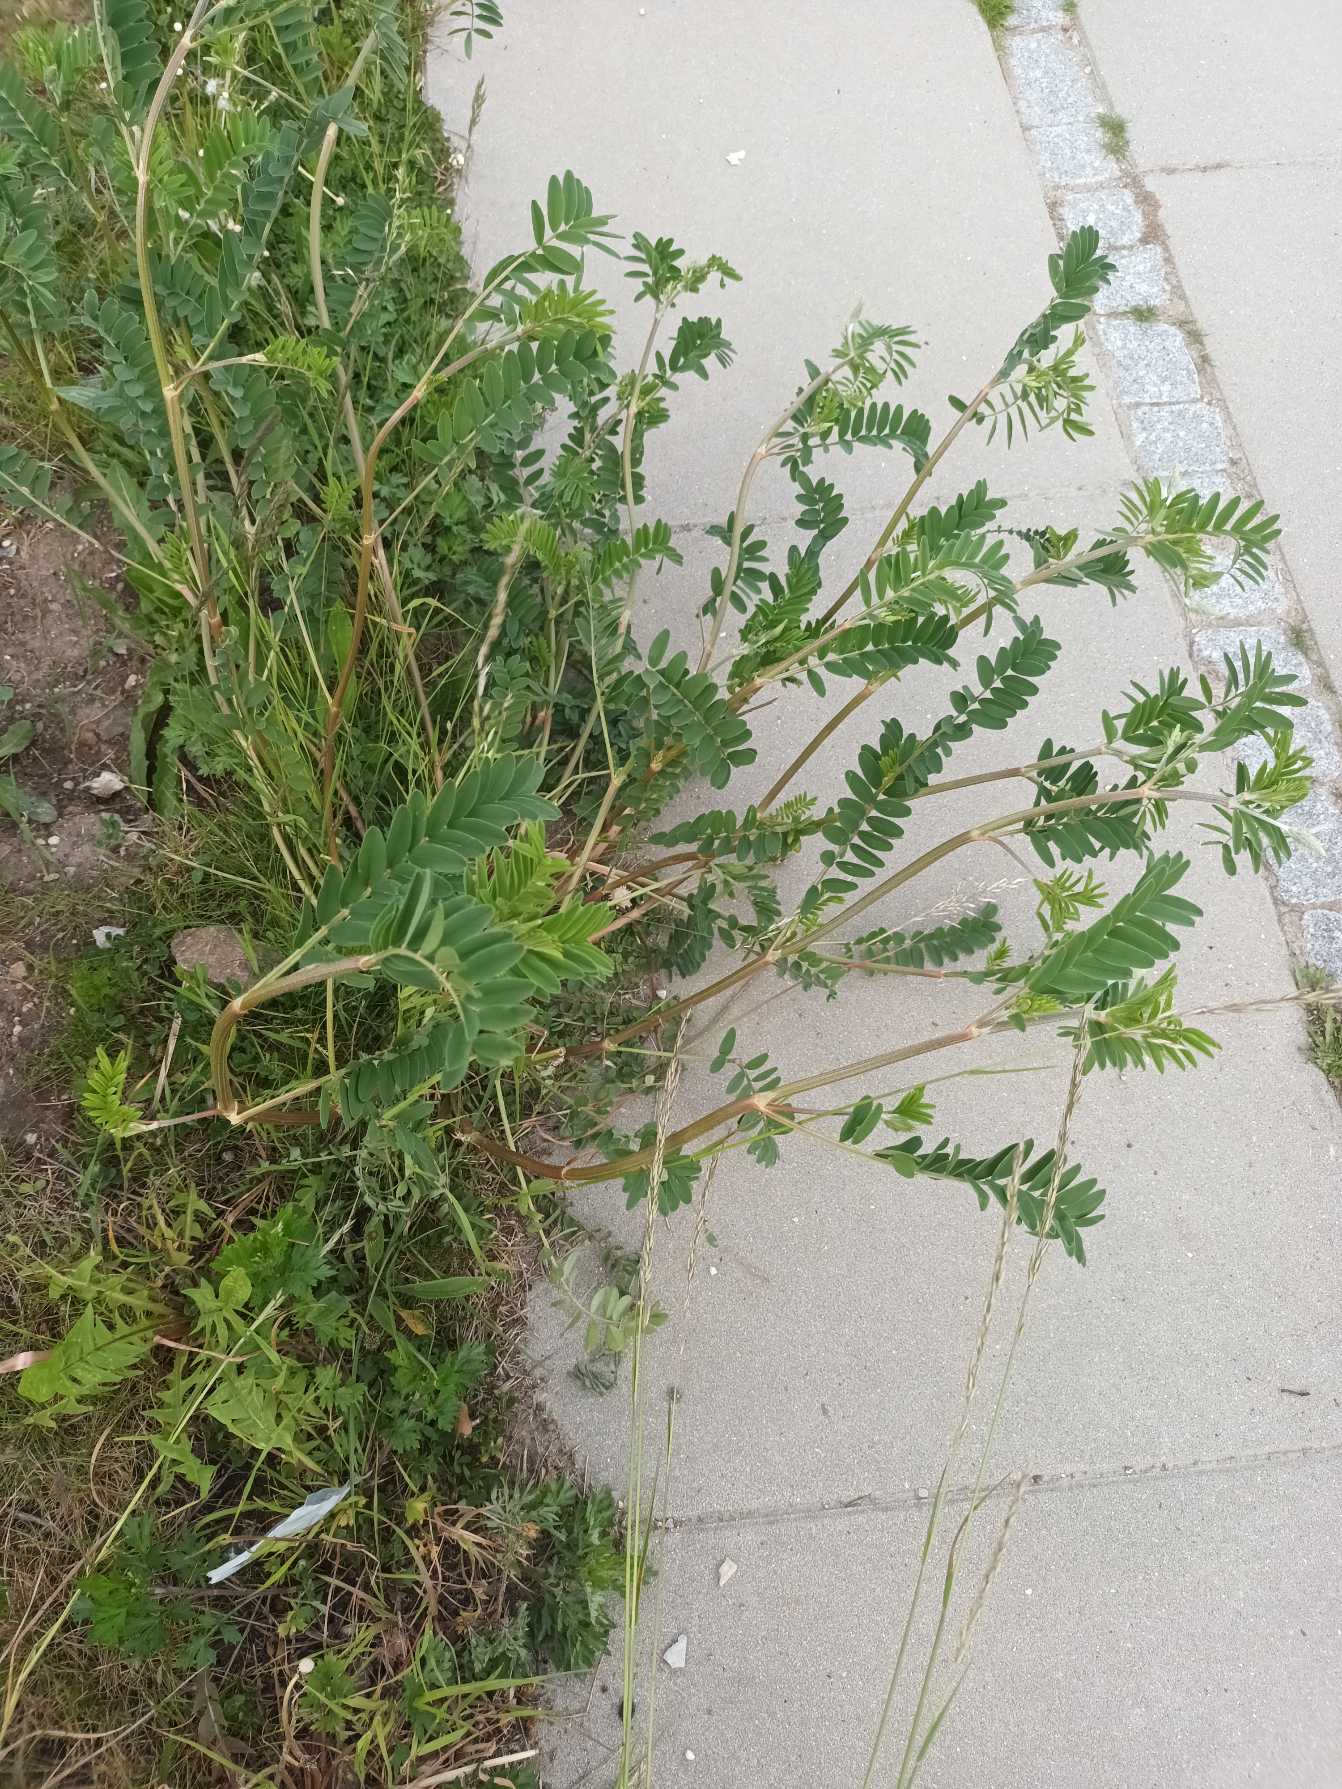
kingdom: Plantae
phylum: Tracheophyta
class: Magnoliopsida
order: Fabales
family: Fabaceae
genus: Onobrychis
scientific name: Onobrychis viciifolia
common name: Esparsette
